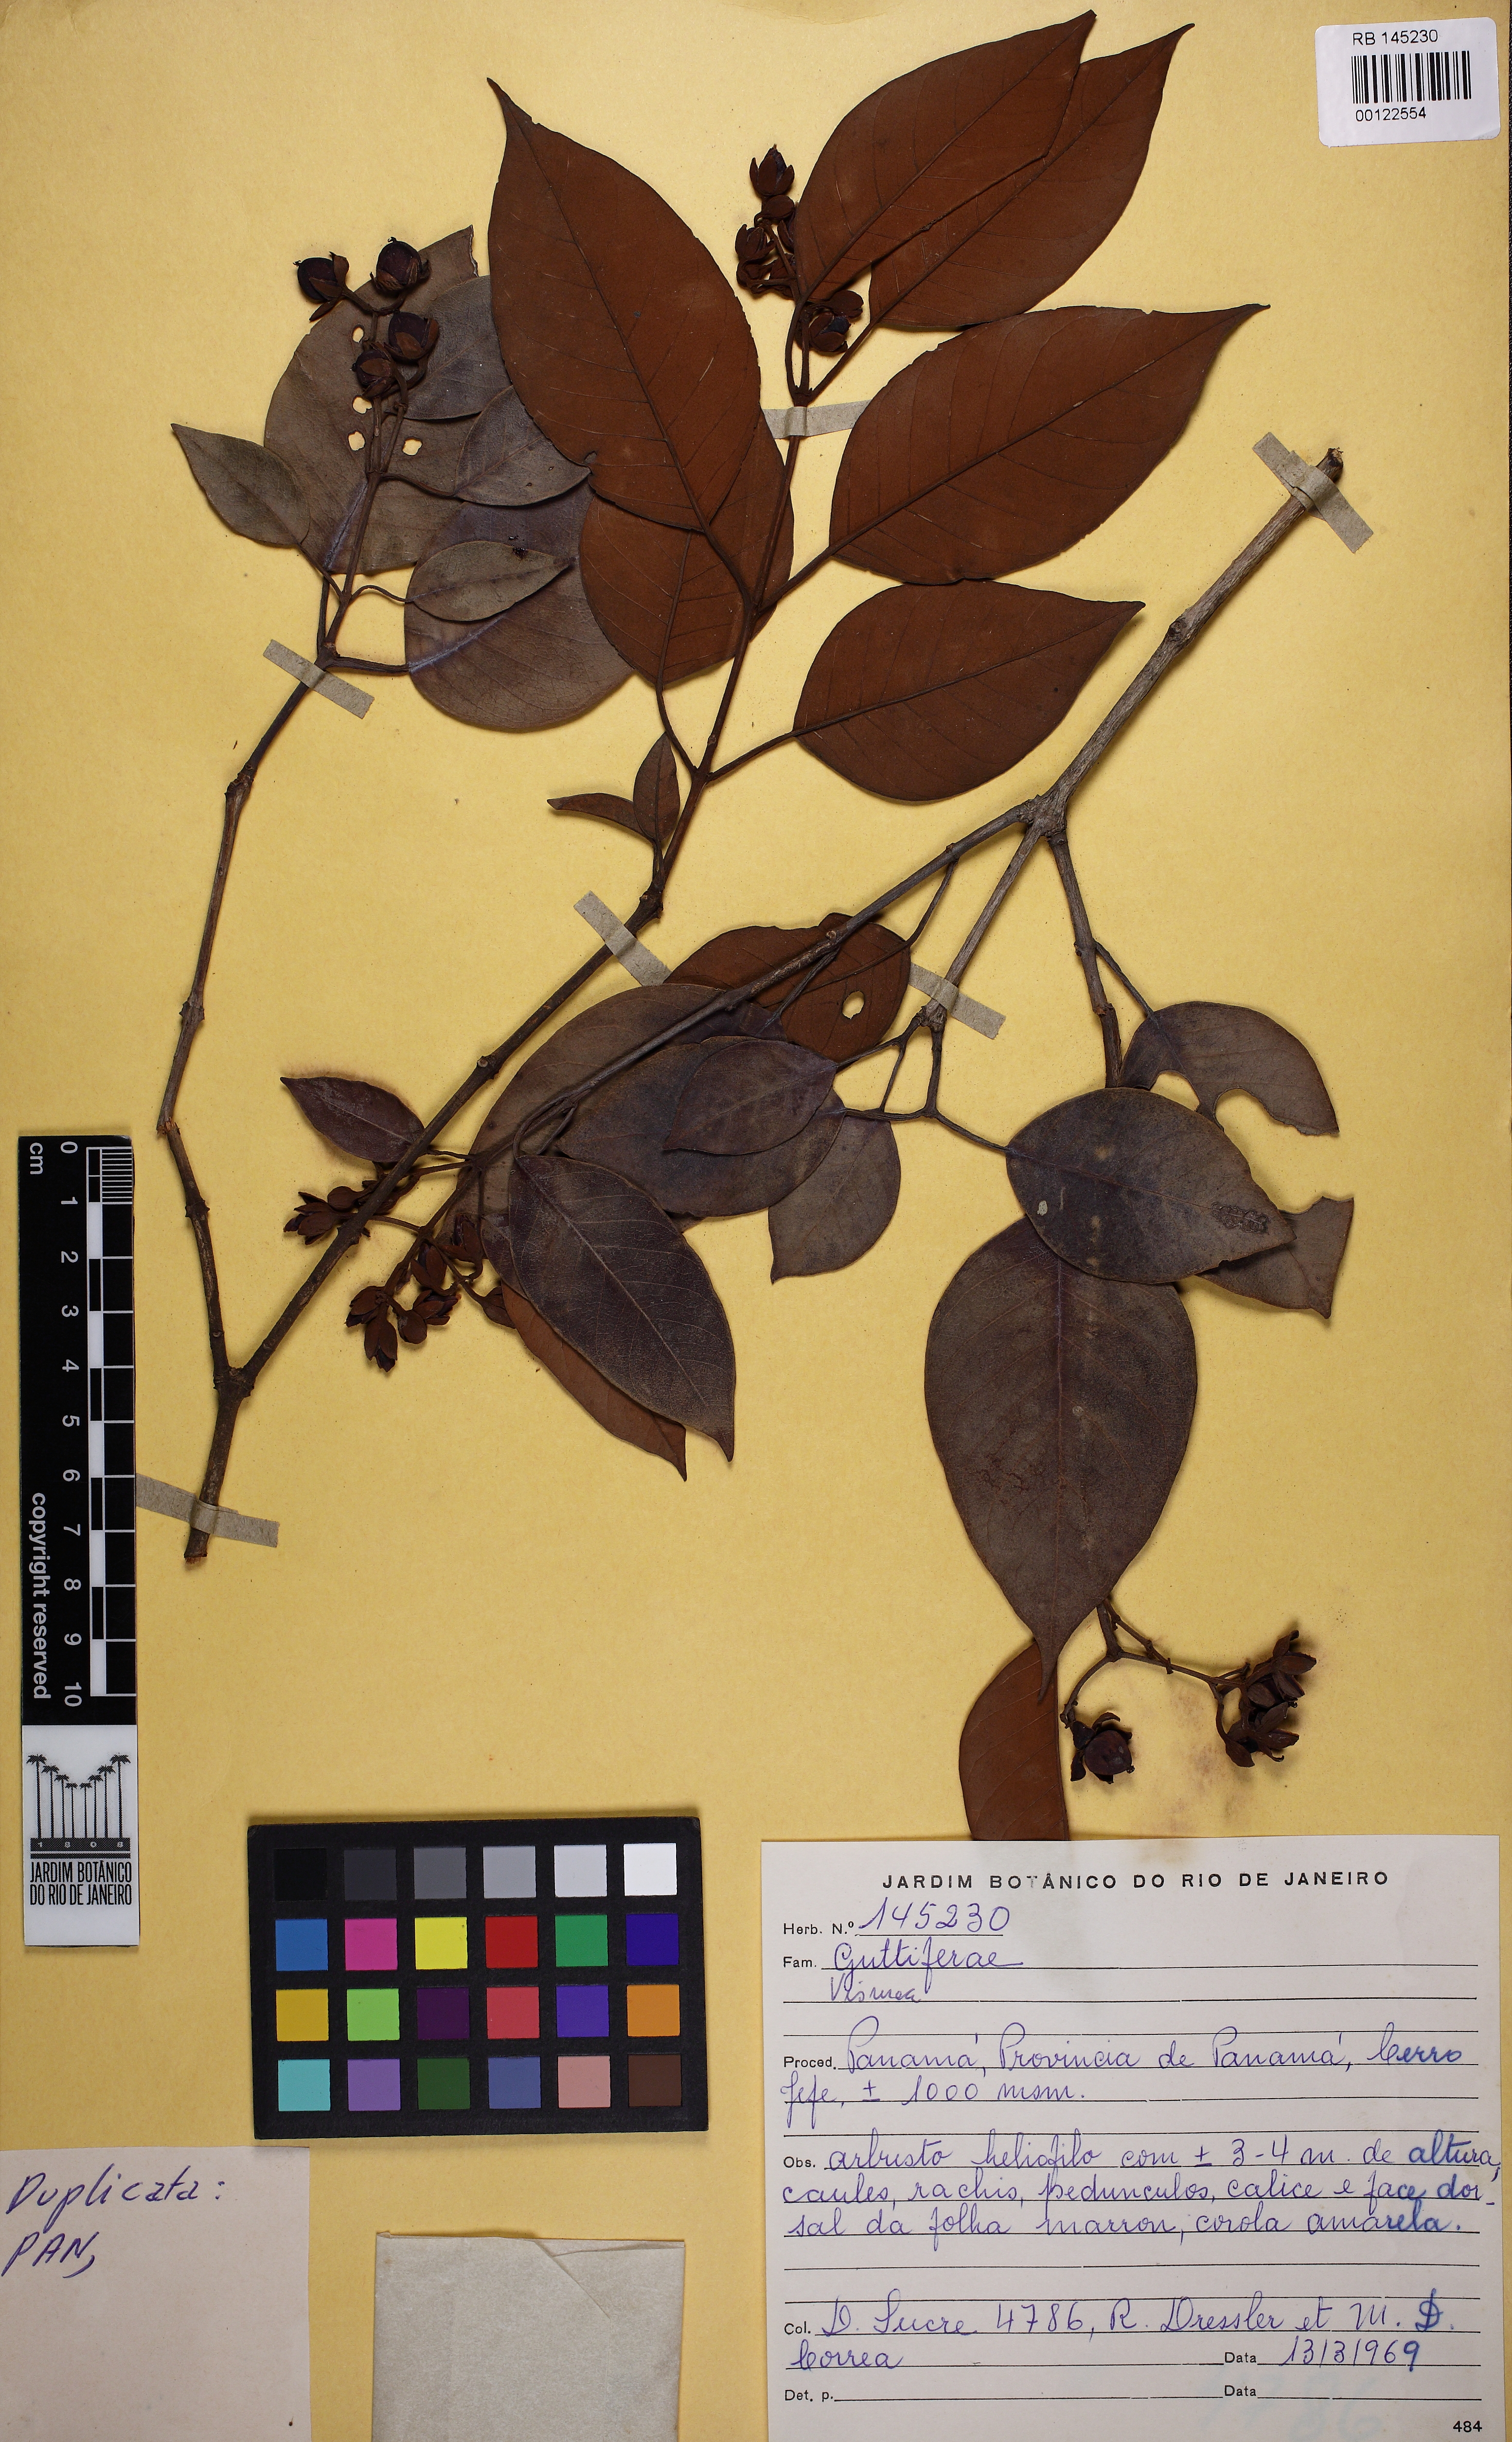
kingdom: Plantae
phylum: Tracheophyta
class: Magnoliopsida
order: Malpighiales
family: Hypericaceae
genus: Vismia
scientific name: Vismia
